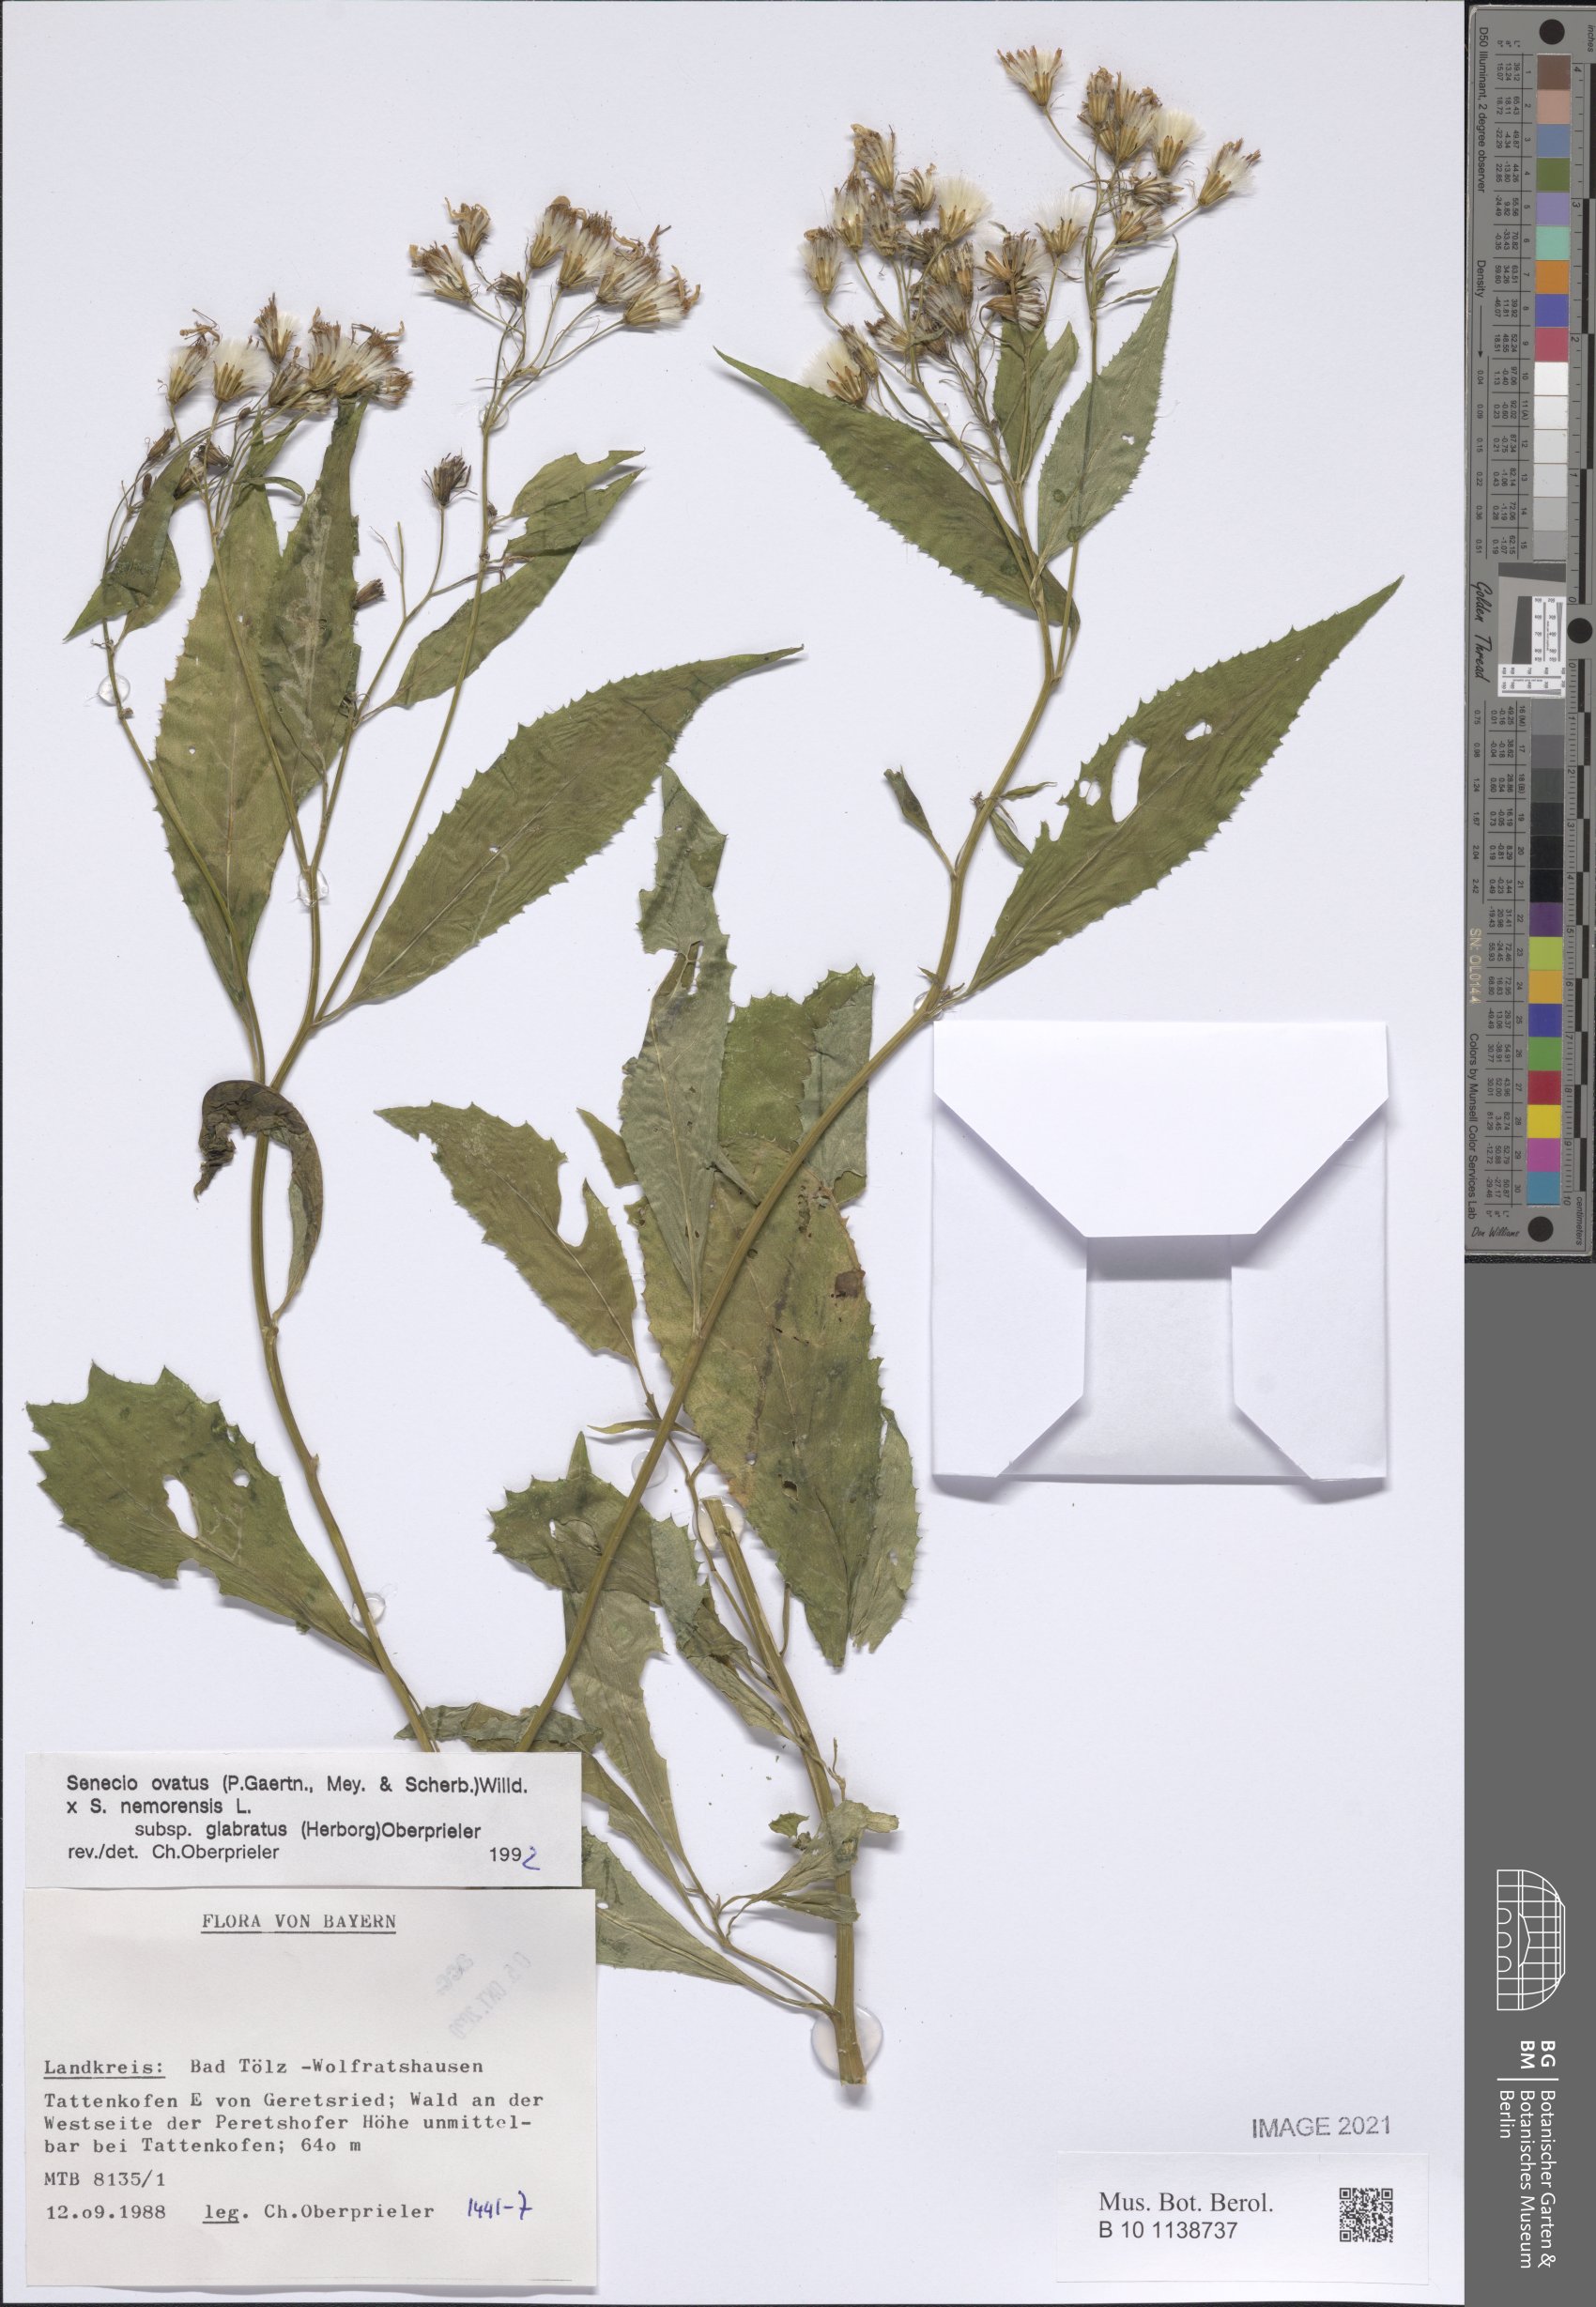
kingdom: Plantae
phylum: Tracheophyta
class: Magnoliopsida
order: Asterales
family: Asteraceae
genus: Senecio
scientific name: Senecio ovatus
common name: Wood ragwort
